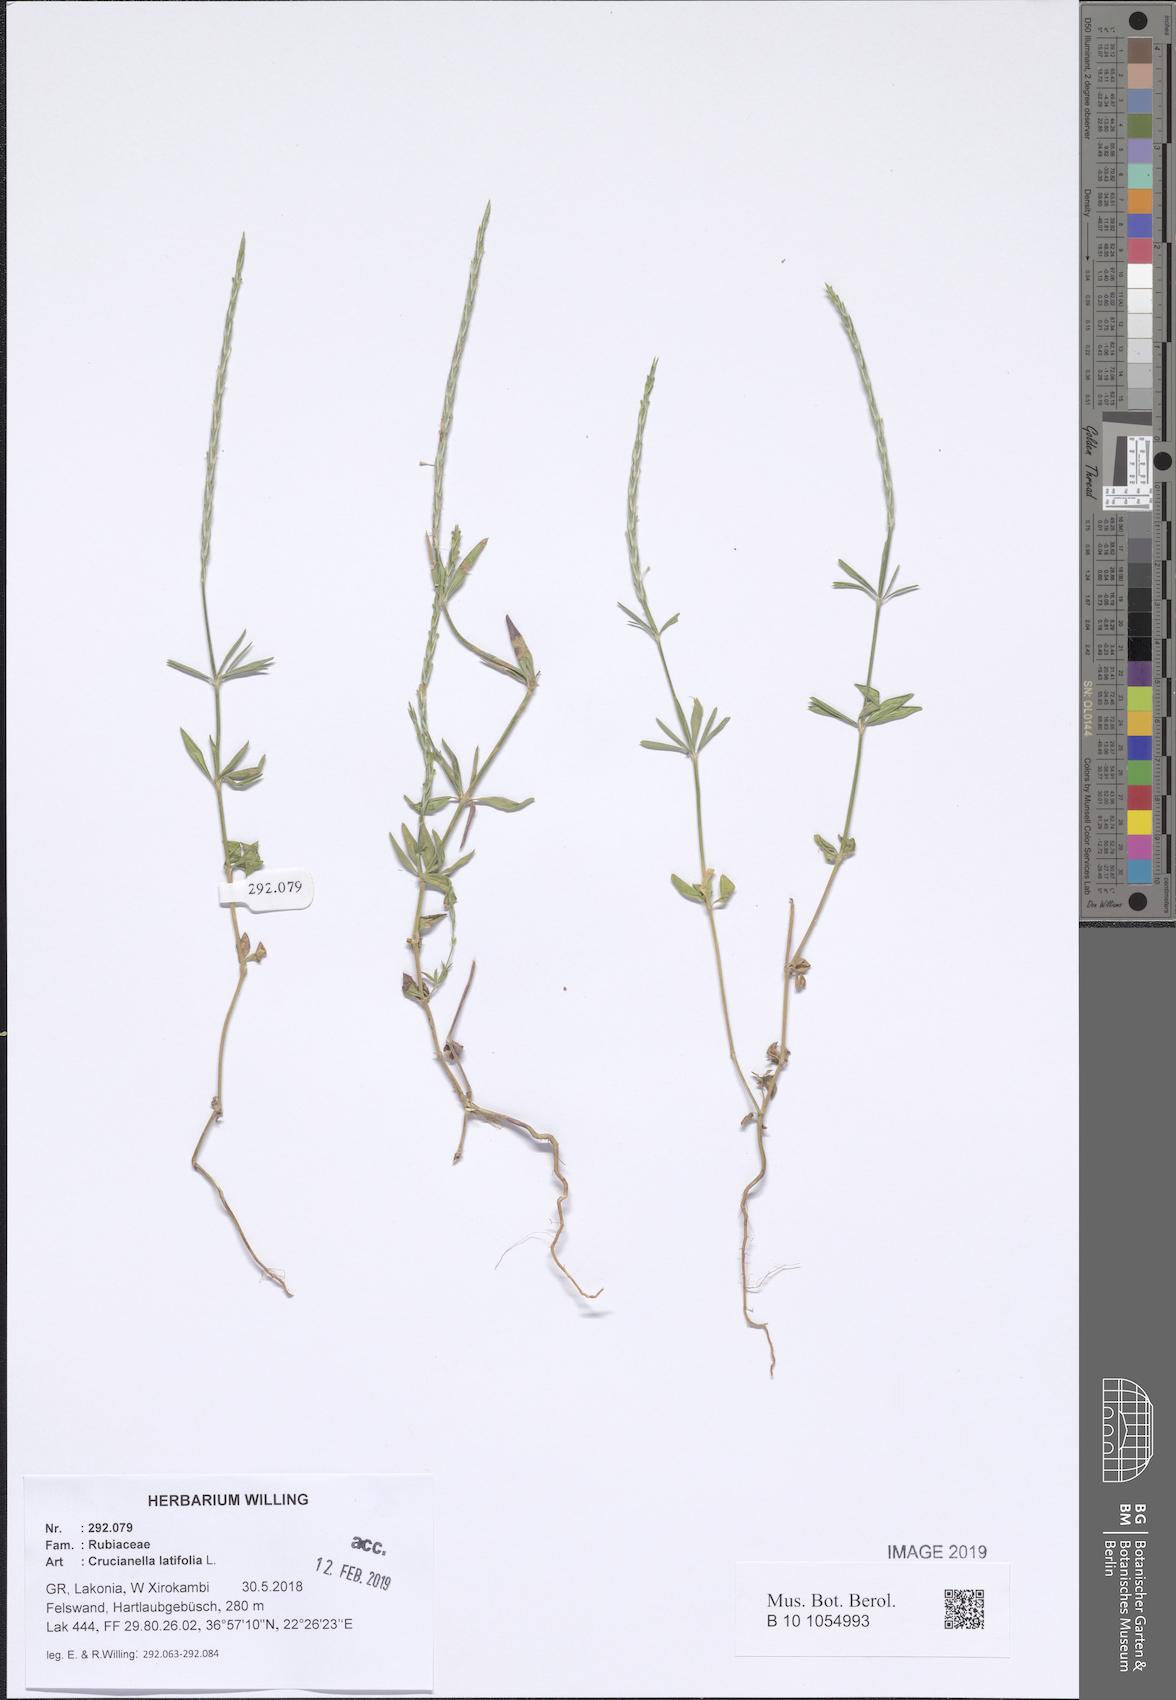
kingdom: Plantae
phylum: Tracheophyta
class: Magnoliopsida
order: Gentianales
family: Rubiaceae
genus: Crucianella
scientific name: Crucianella latifolia
